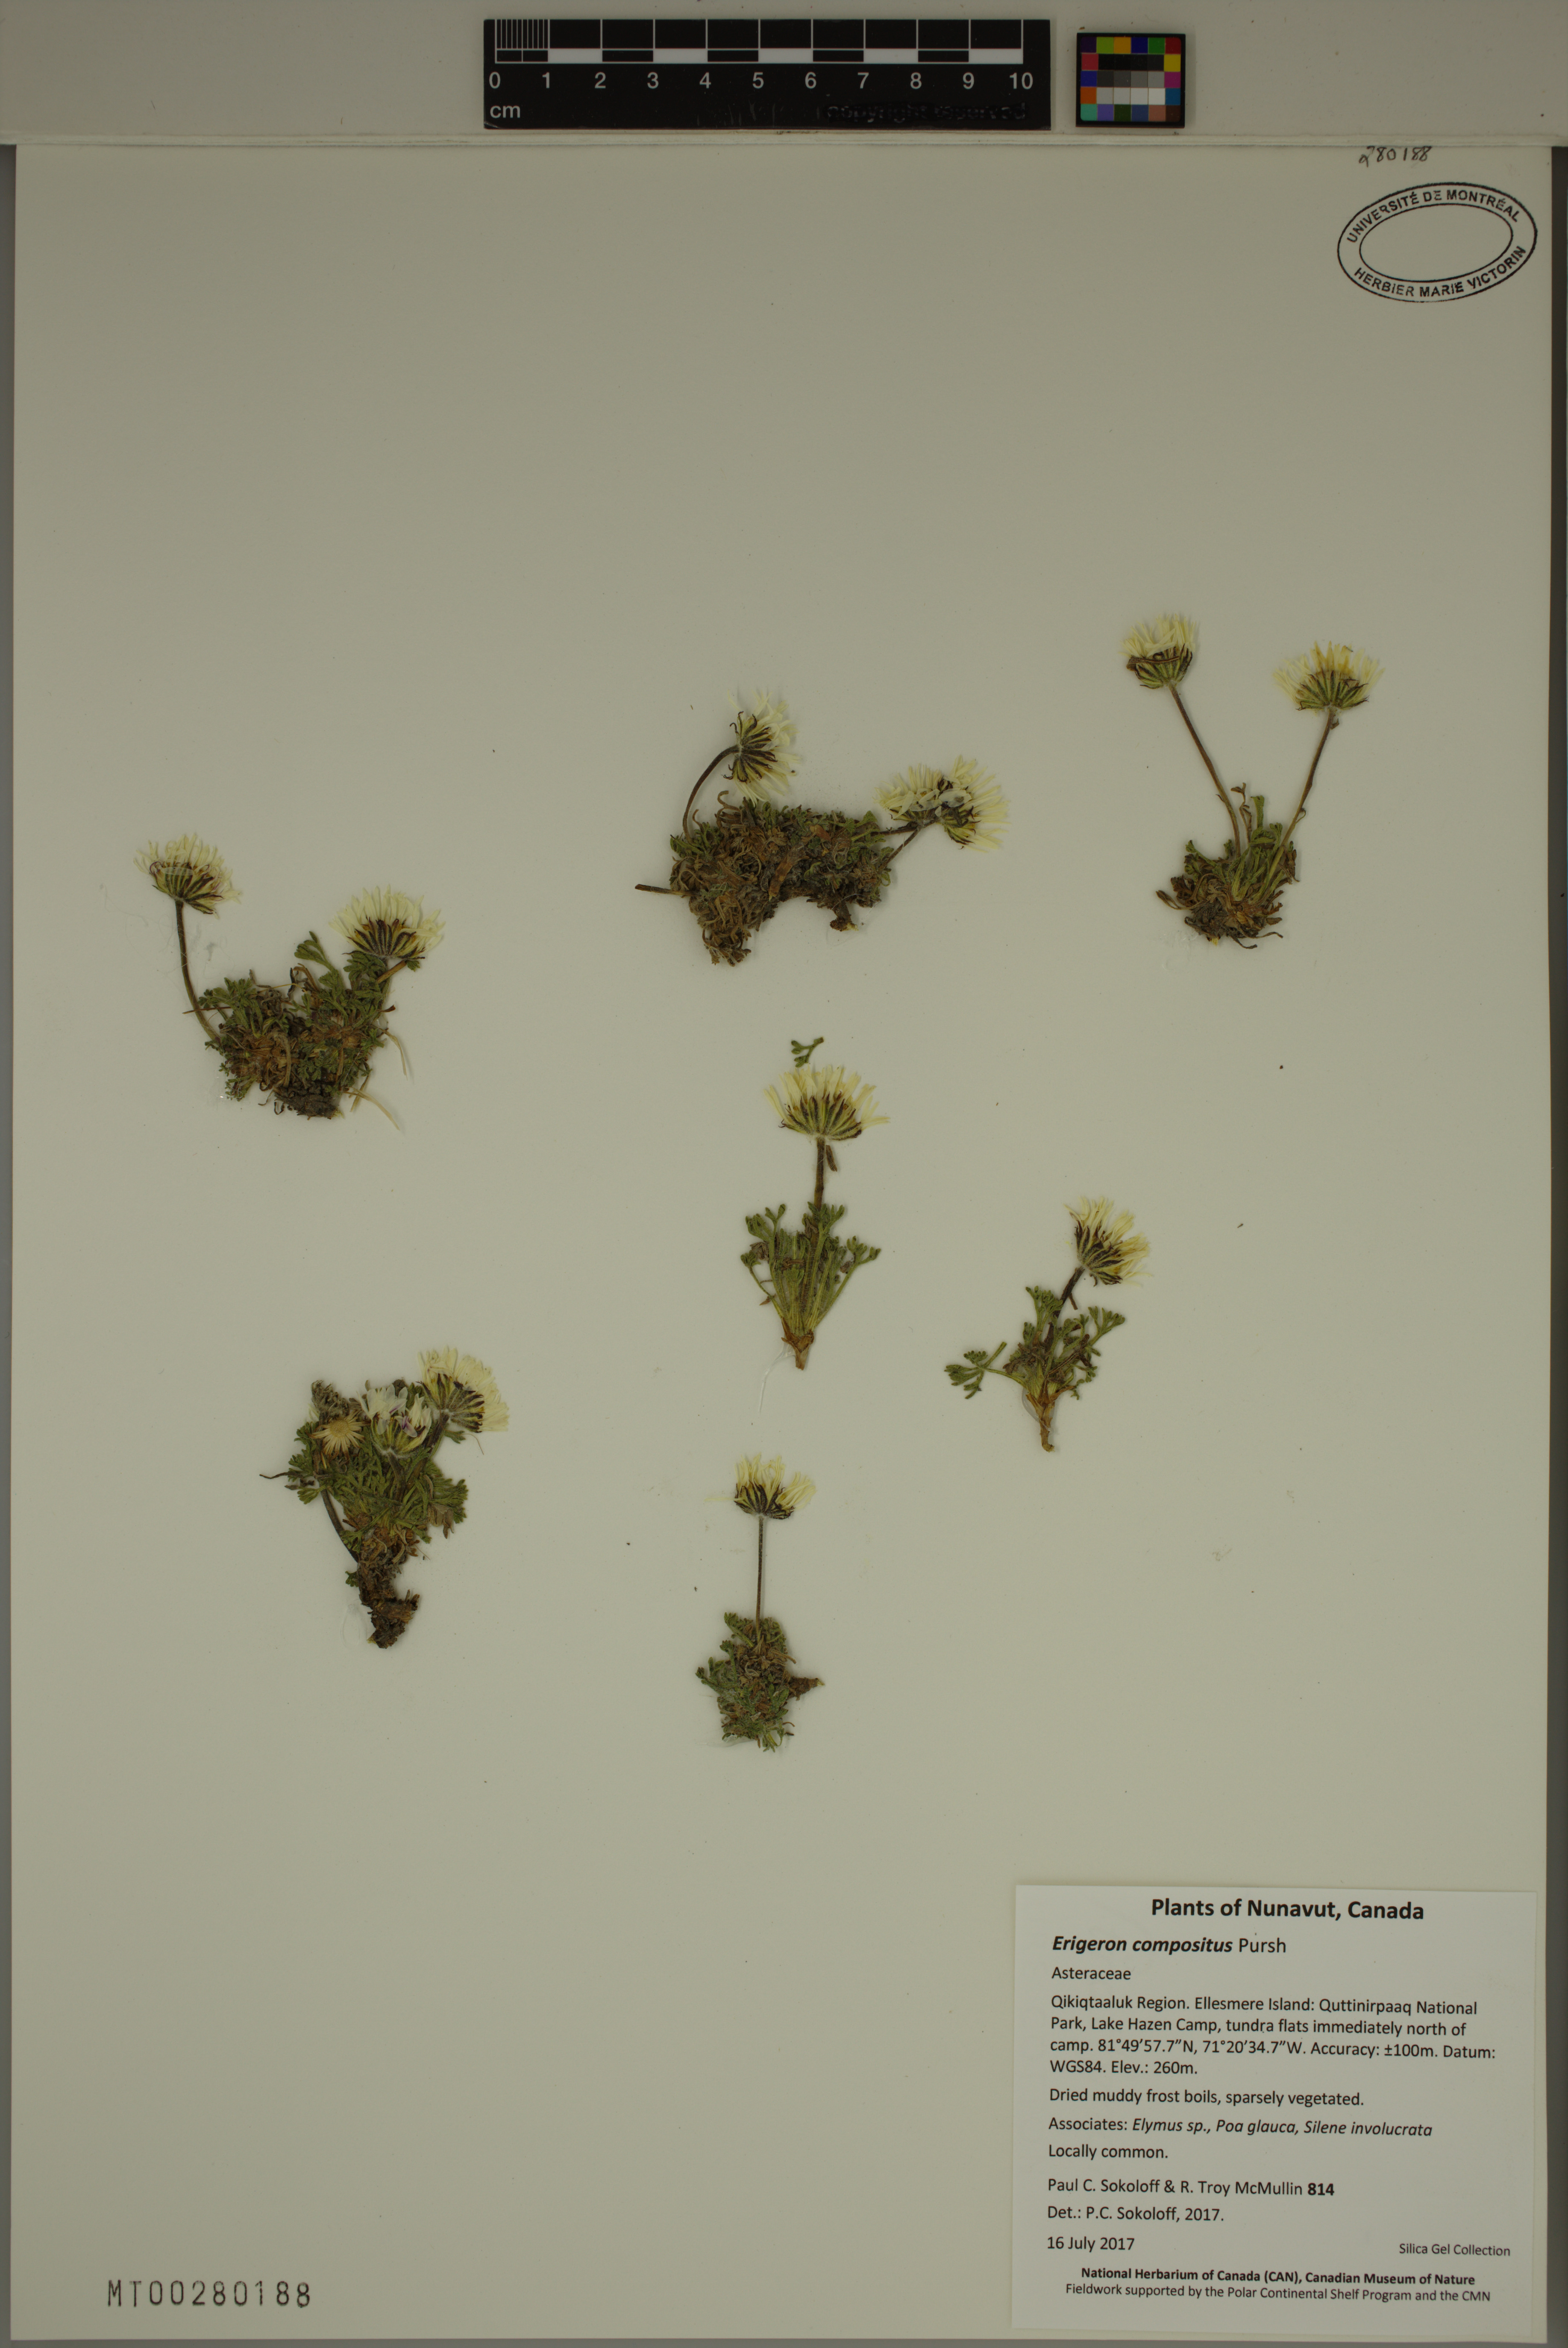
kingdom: Plantae
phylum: Tracheophyta
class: Magnoliopsida
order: Asterales
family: Asteraceae
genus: Erigeron
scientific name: Erigeron compositus
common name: Dwarf mountain fleabane
